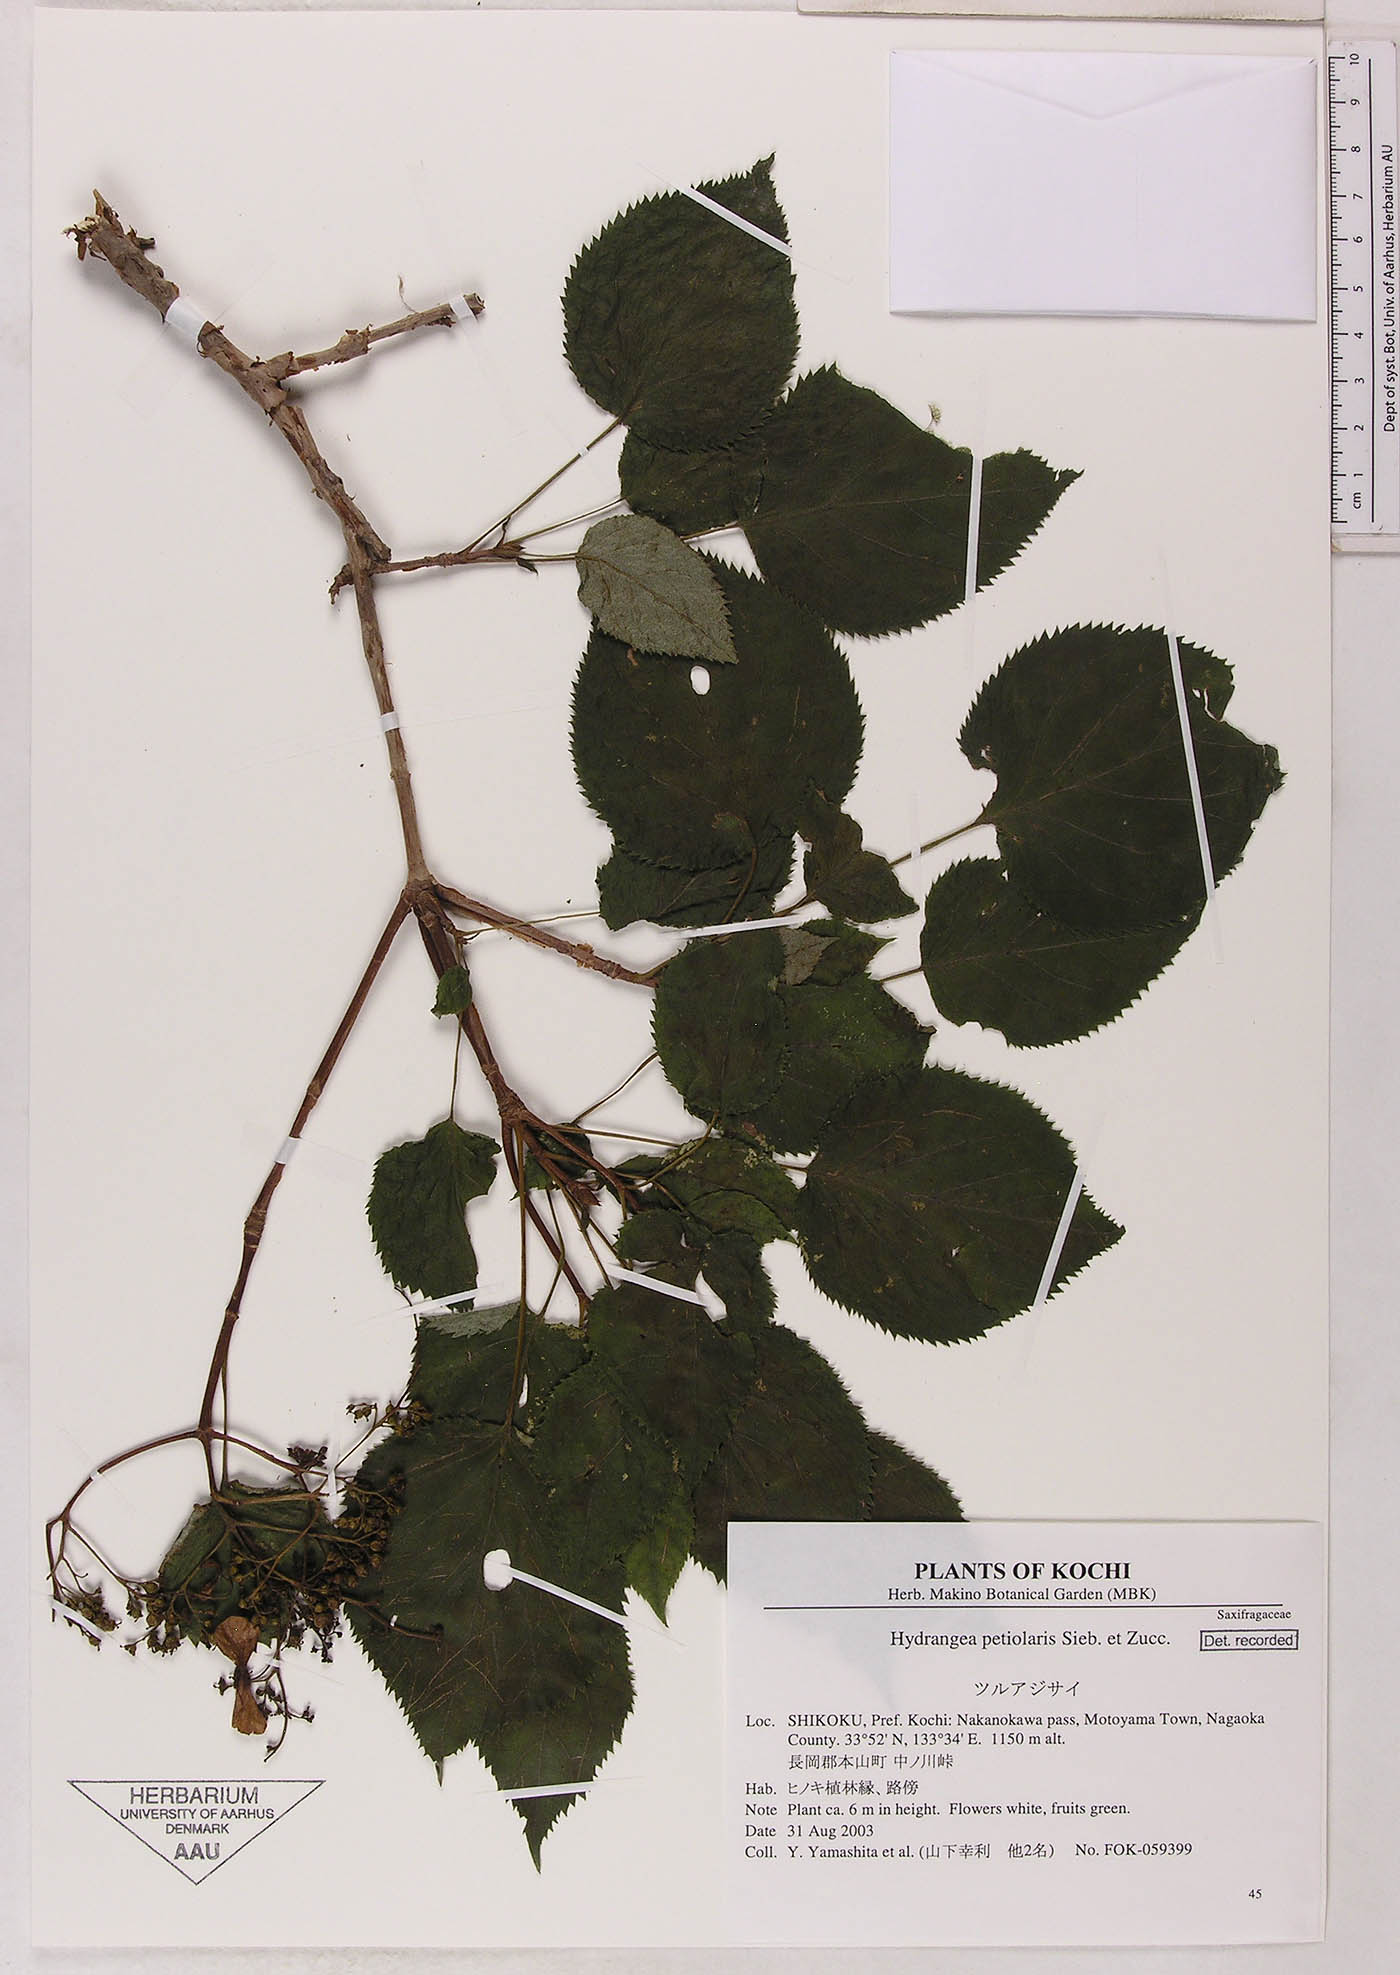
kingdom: Plantae
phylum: Tracheophyta
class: Magnoliopsida
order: Cornales
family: Hydrangeaceae
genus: Hydrangea
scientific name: Hydrangea petiolaris
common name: Japanese climbing hydrangea
